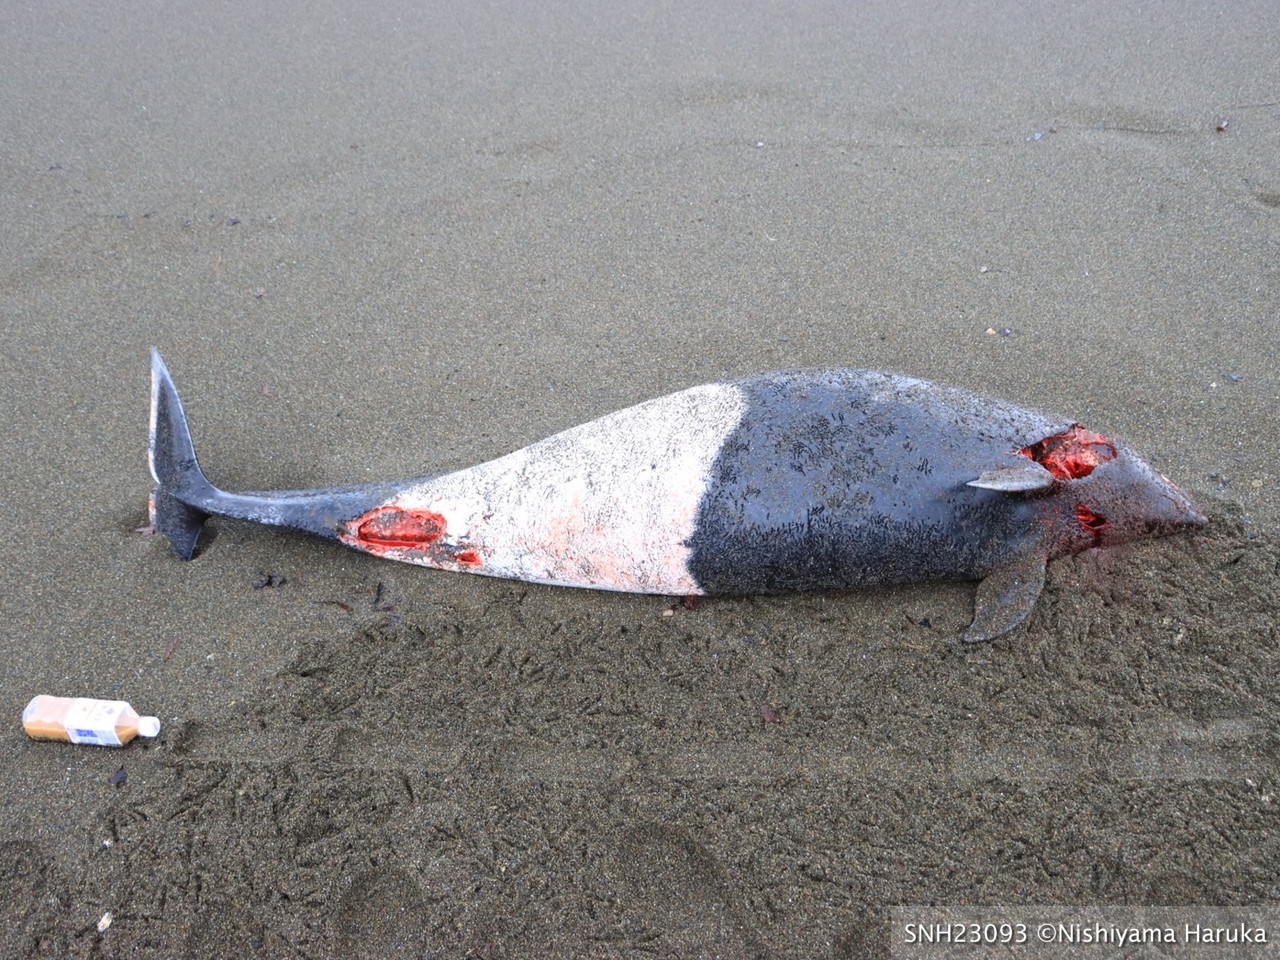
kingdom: Animalia
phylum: Chordata
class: Mammalia
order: Cetacea
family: Phocoenidae
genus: Phocoenoides
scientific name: Phocoenoides dalli
